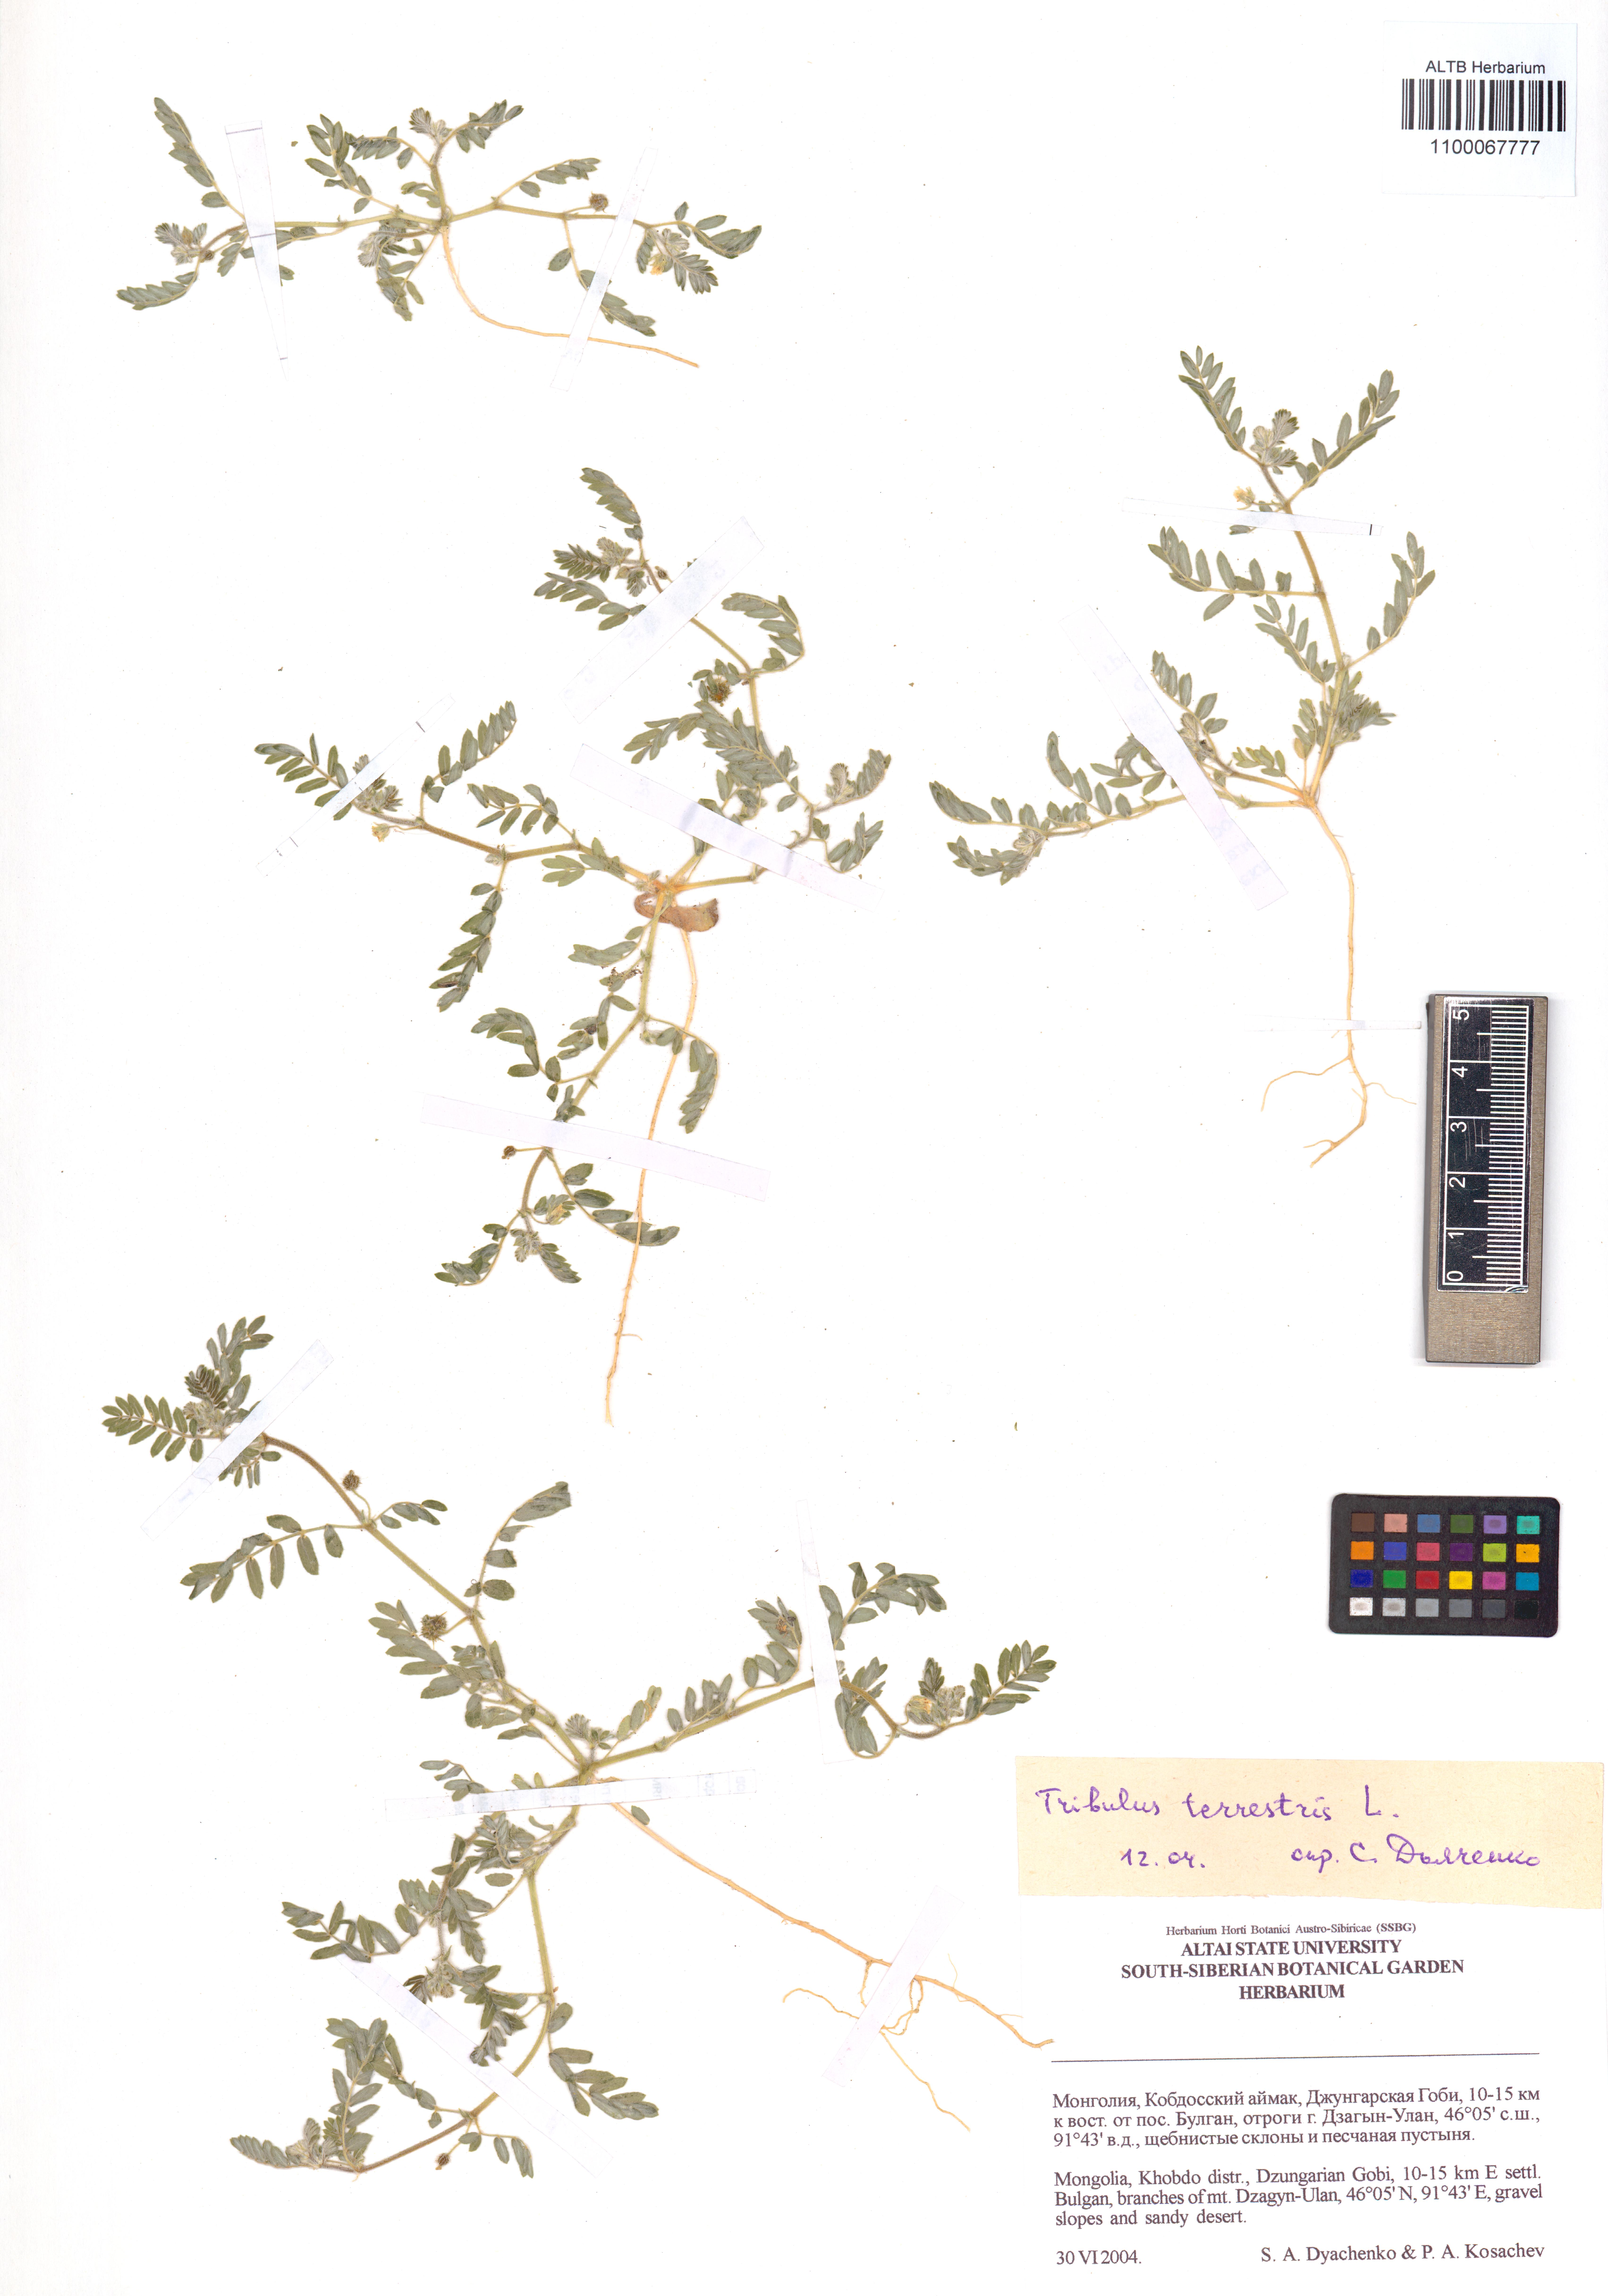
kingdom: Plantae
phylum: Tracheophyta
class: Magnoliopsida
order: Zygophyllales
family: Zygophyllaceae
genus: Tribulus
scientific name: Tribulus terrestris
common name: Puncturevine
